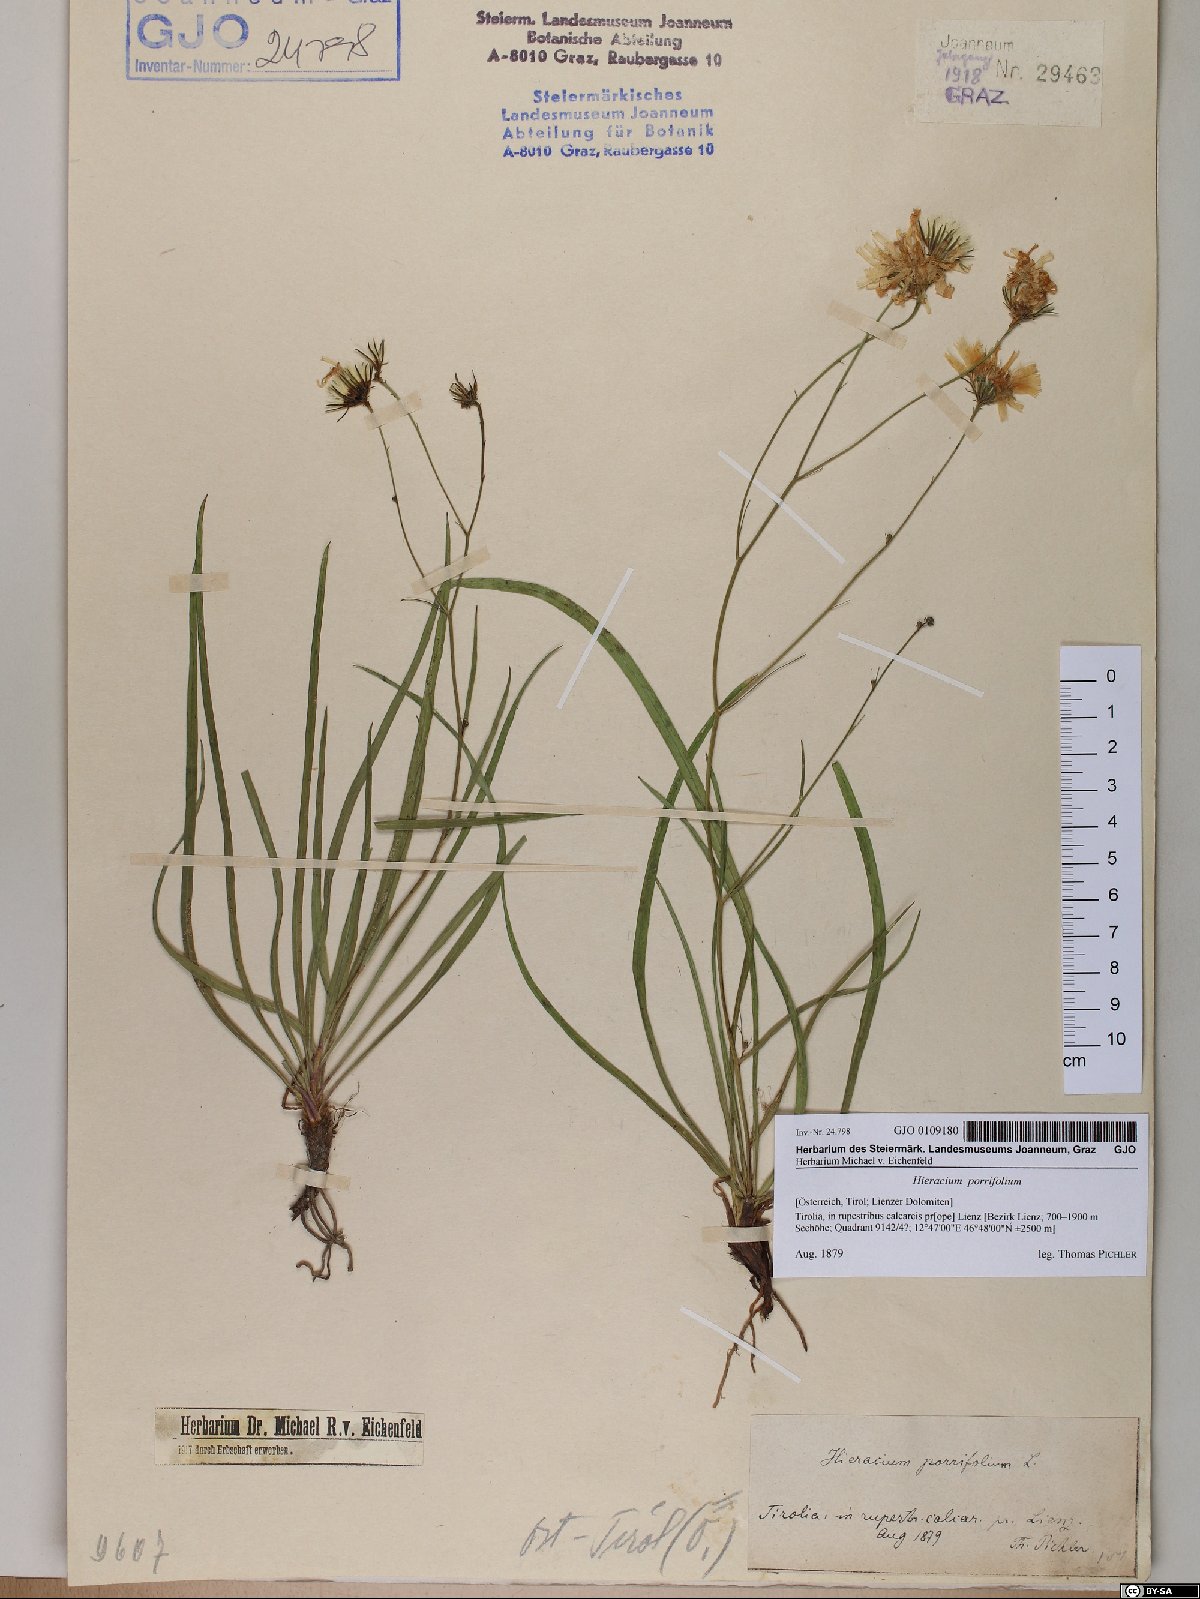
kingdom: Plantae
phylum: Tracheophyta
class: Magnoliopsida
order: Asterales
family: Asteraceae
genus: Hieracium
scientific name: Hieracium porrifolium
